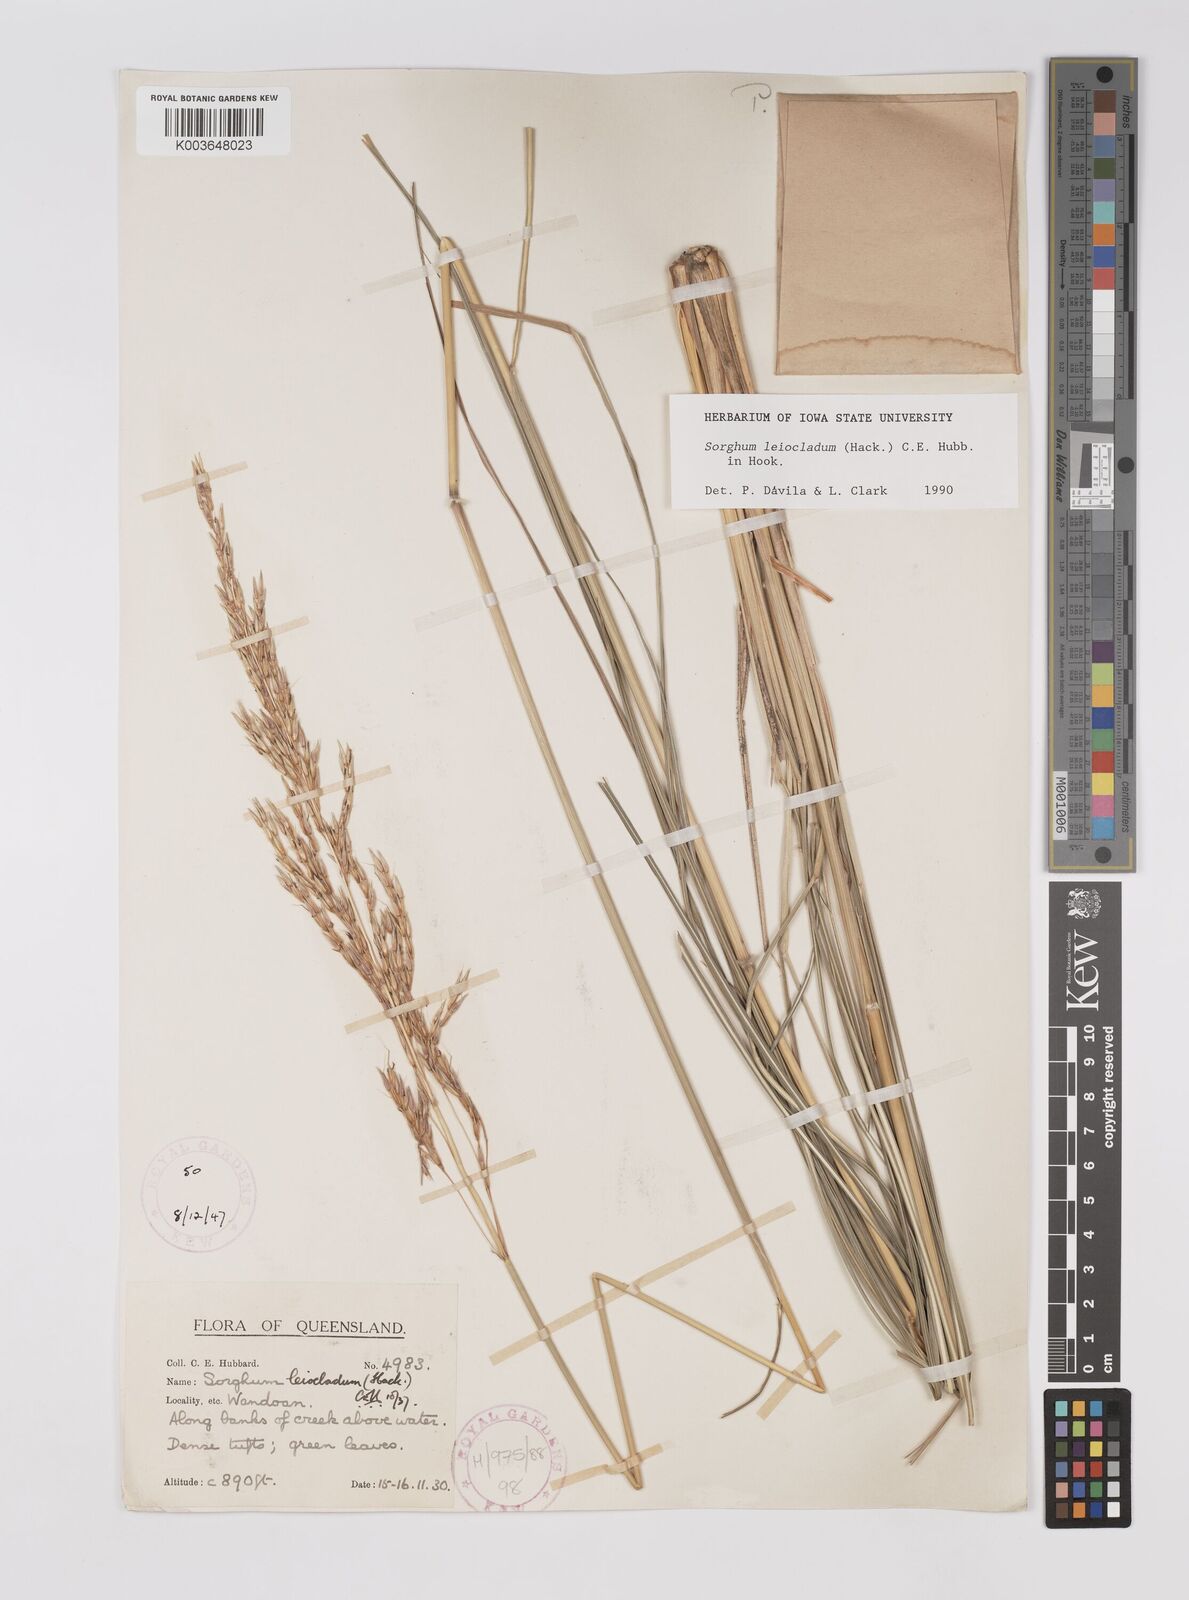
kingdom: Plantae
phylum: Tracheophyta
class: Liliopsida
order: Poales
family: Poaceae
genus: Sarga
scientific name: Sarga leioclada
